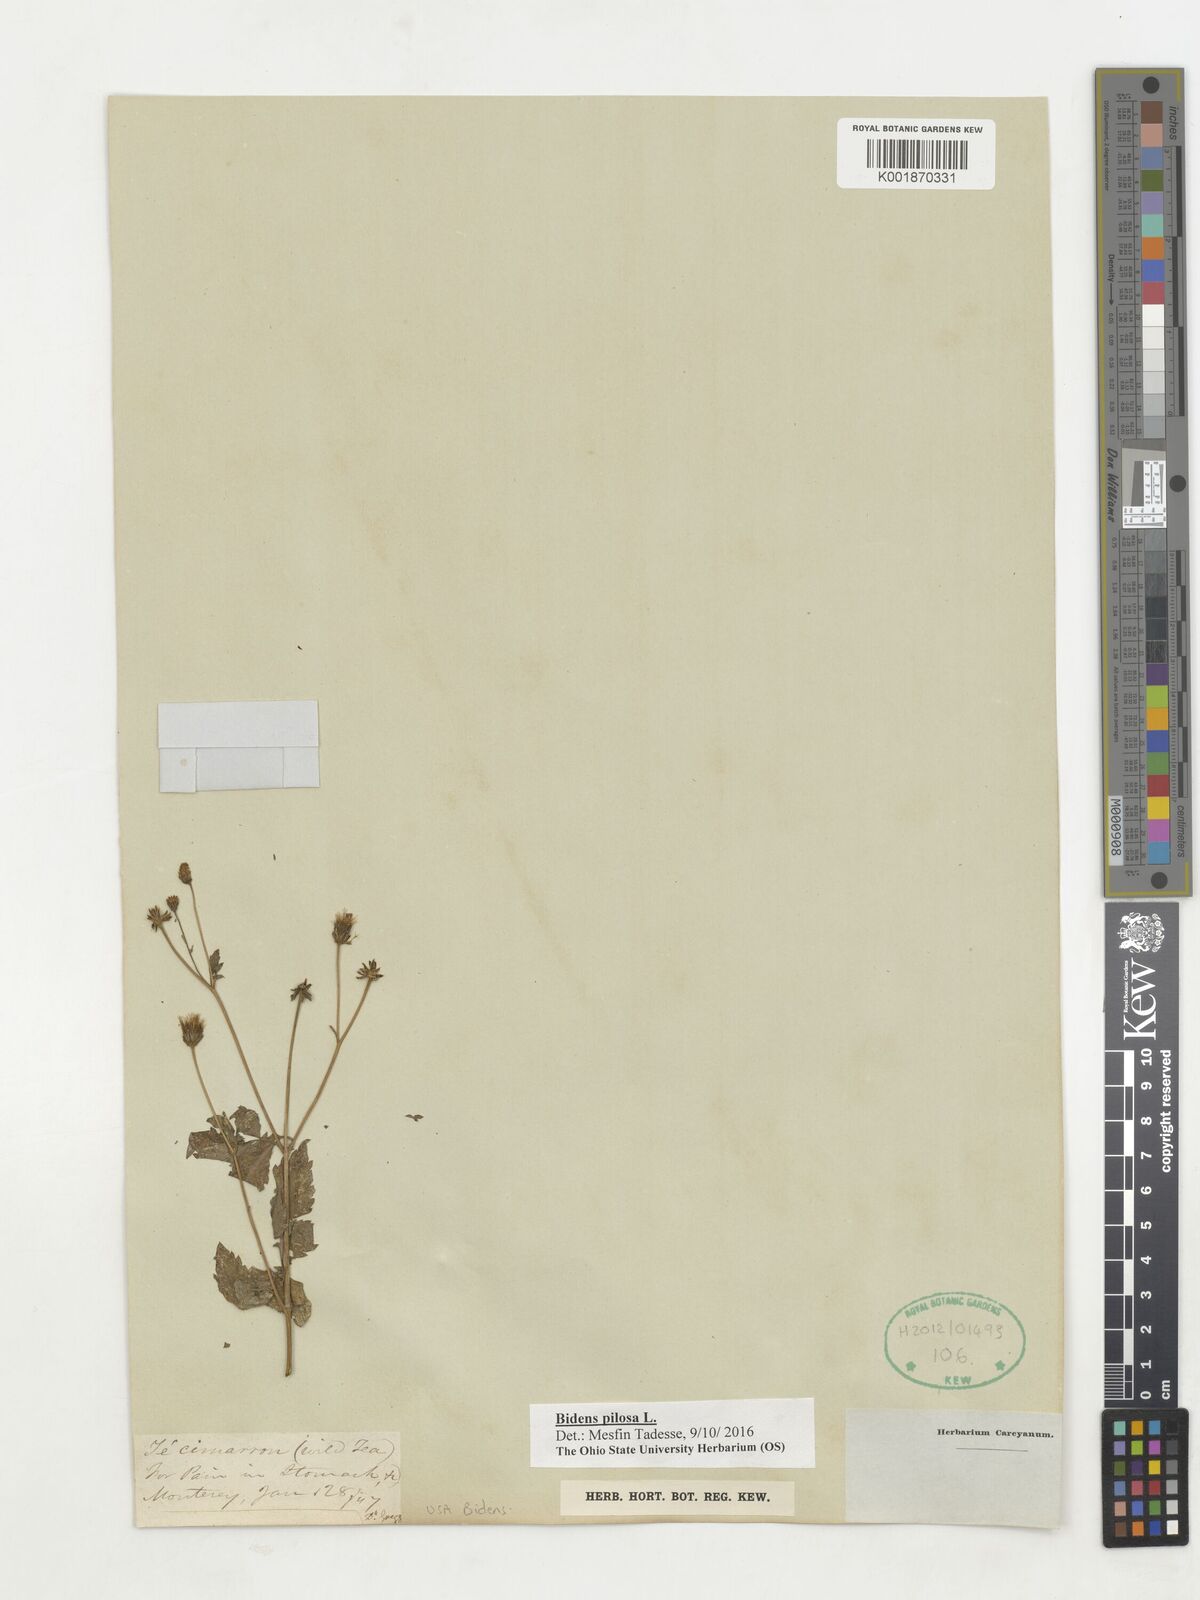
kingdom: Plantae
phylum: Tracheophyta
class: Magnoliopsida
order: Asterales
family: Asteraceae
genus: Bidens
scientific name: Bidens pilosa
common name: Black-jack
